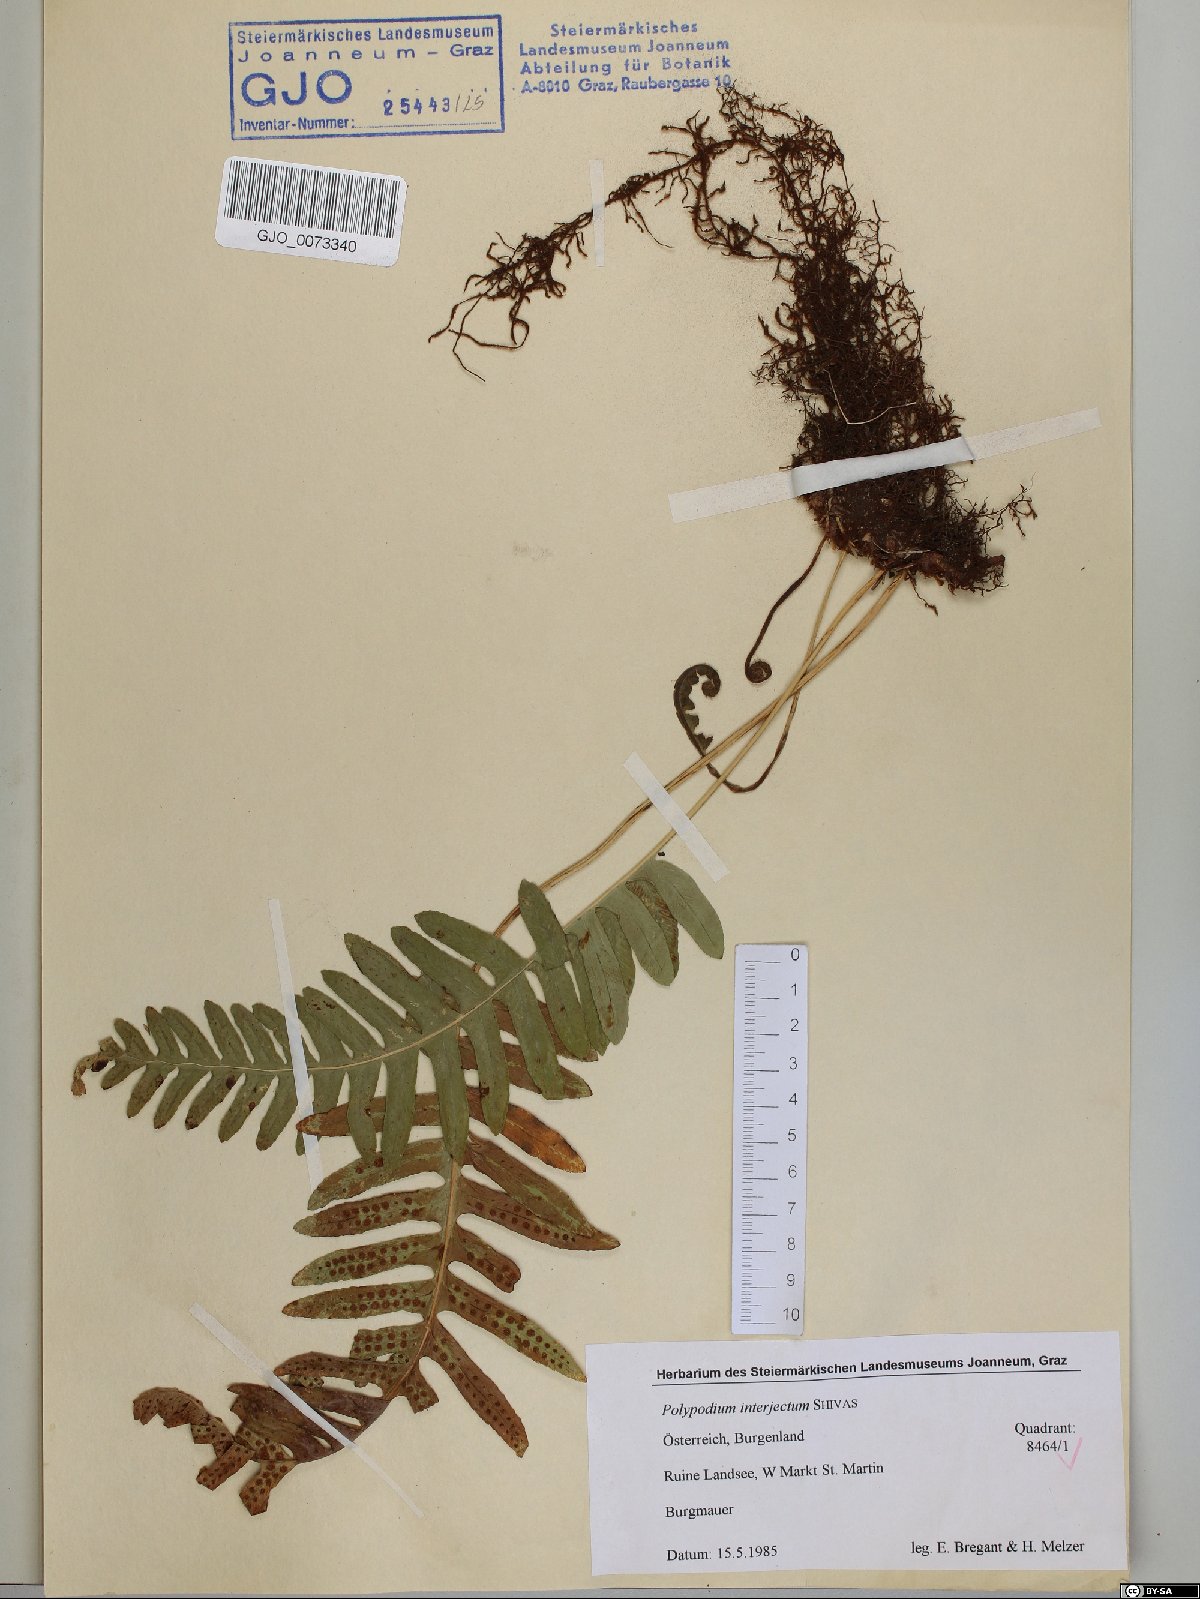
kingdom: Plantae
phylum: Tracheophyta
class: Polypodiopsida
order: Polypodiales
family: Polypodiaceae
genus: Polypodium
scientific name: Polypodium interjectum
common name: Intermediate polypody
